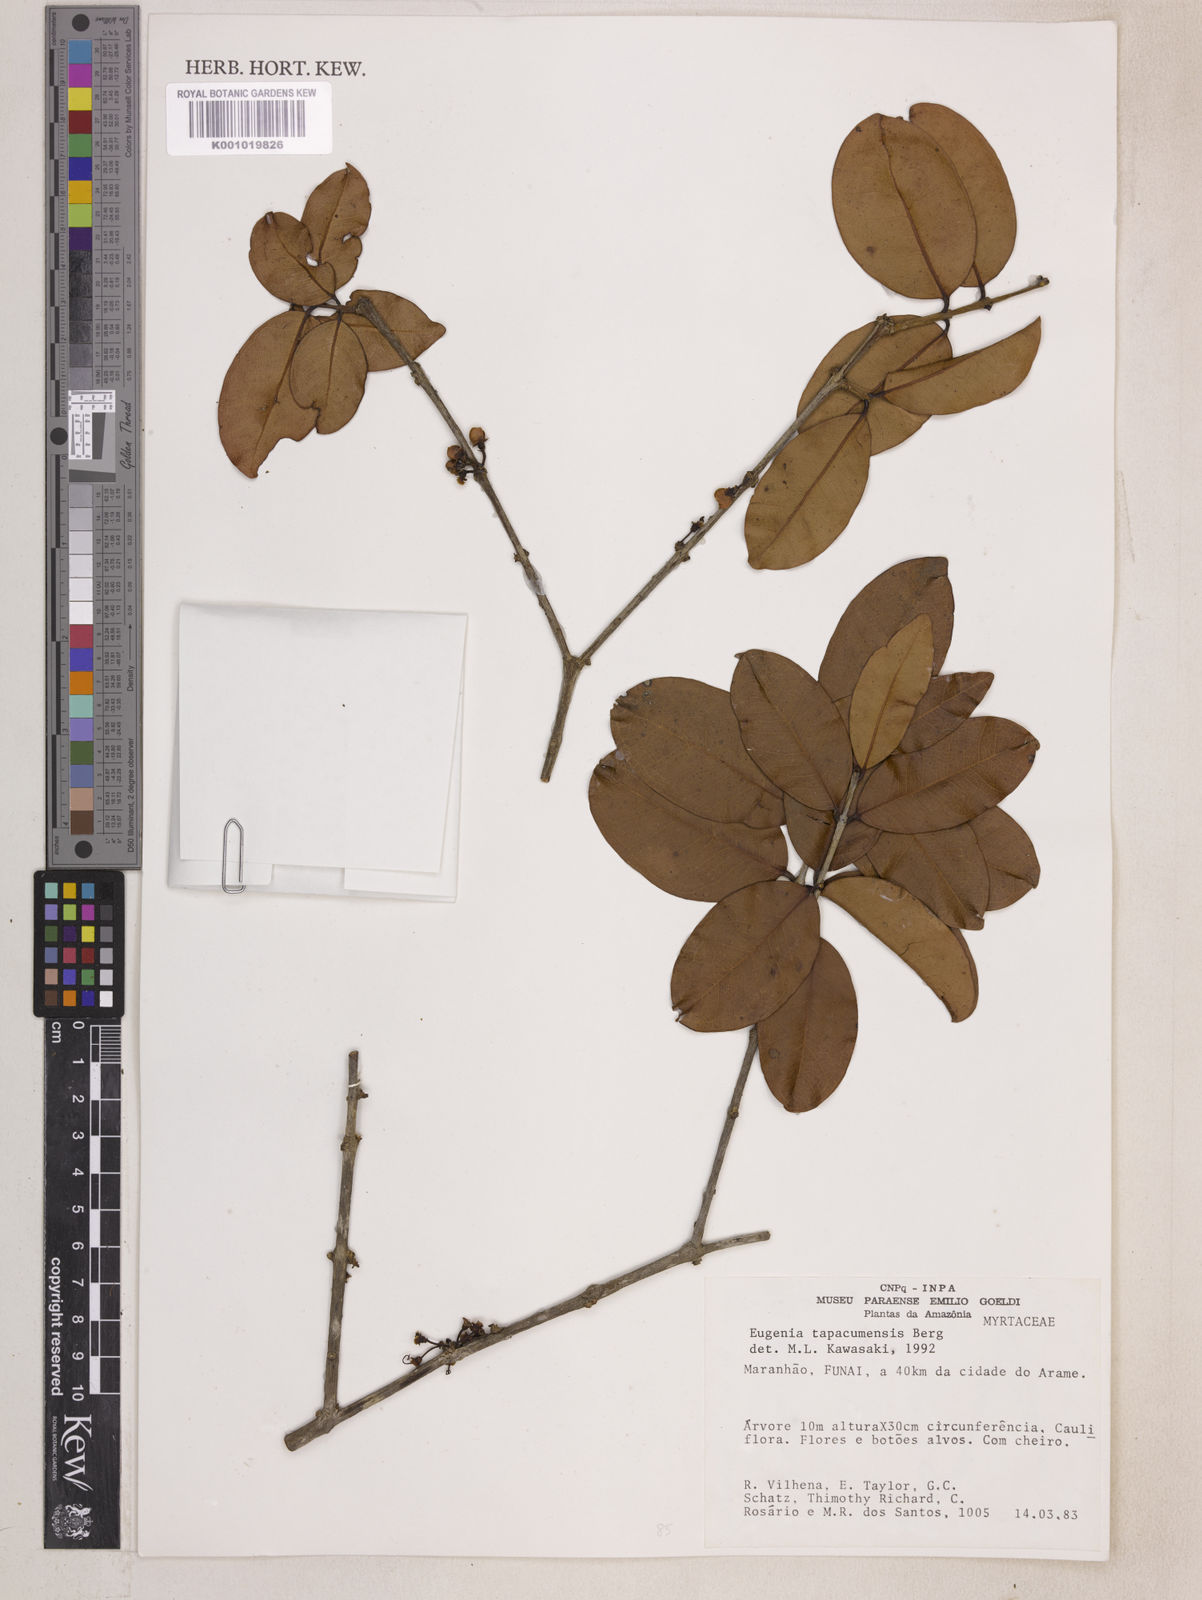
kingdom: Plantae
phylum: Tracheophyta
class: Magnoliopsida
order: Myrtales
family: Myrtaceae
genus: Eugenia
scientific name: Eugenia stictopetala
